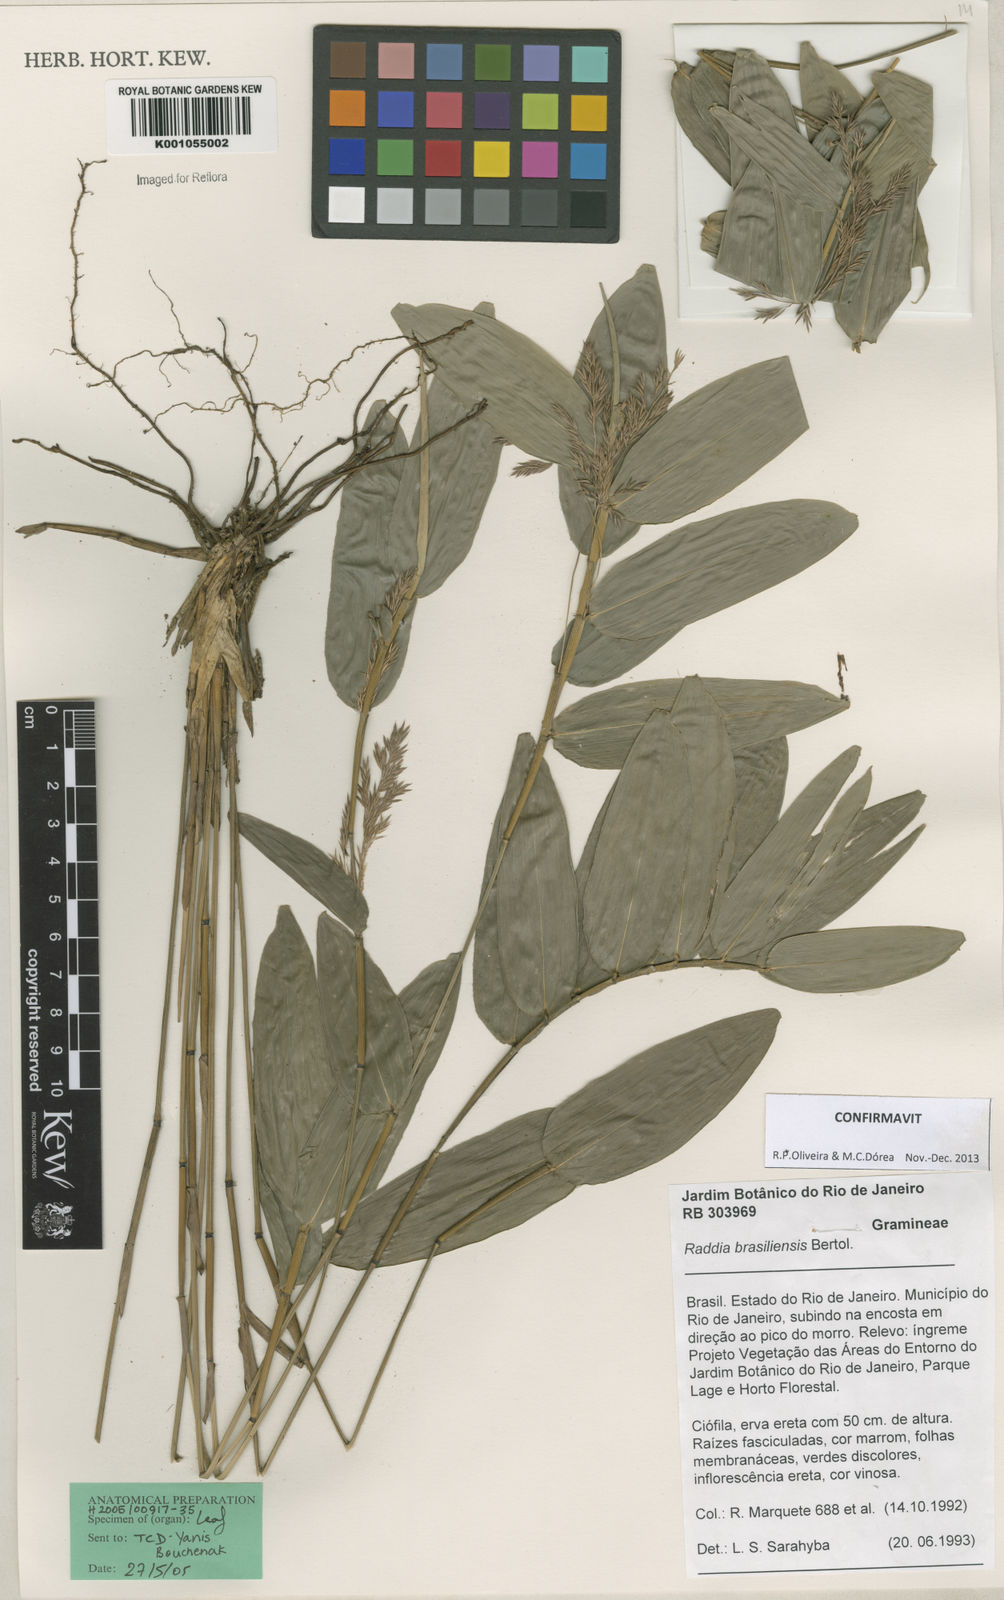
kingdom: Plantae
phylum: Tracheophyta
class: Liliopsida
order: Poales
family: Poaceae
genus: Raddia
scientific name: Raddia brasiliensis
